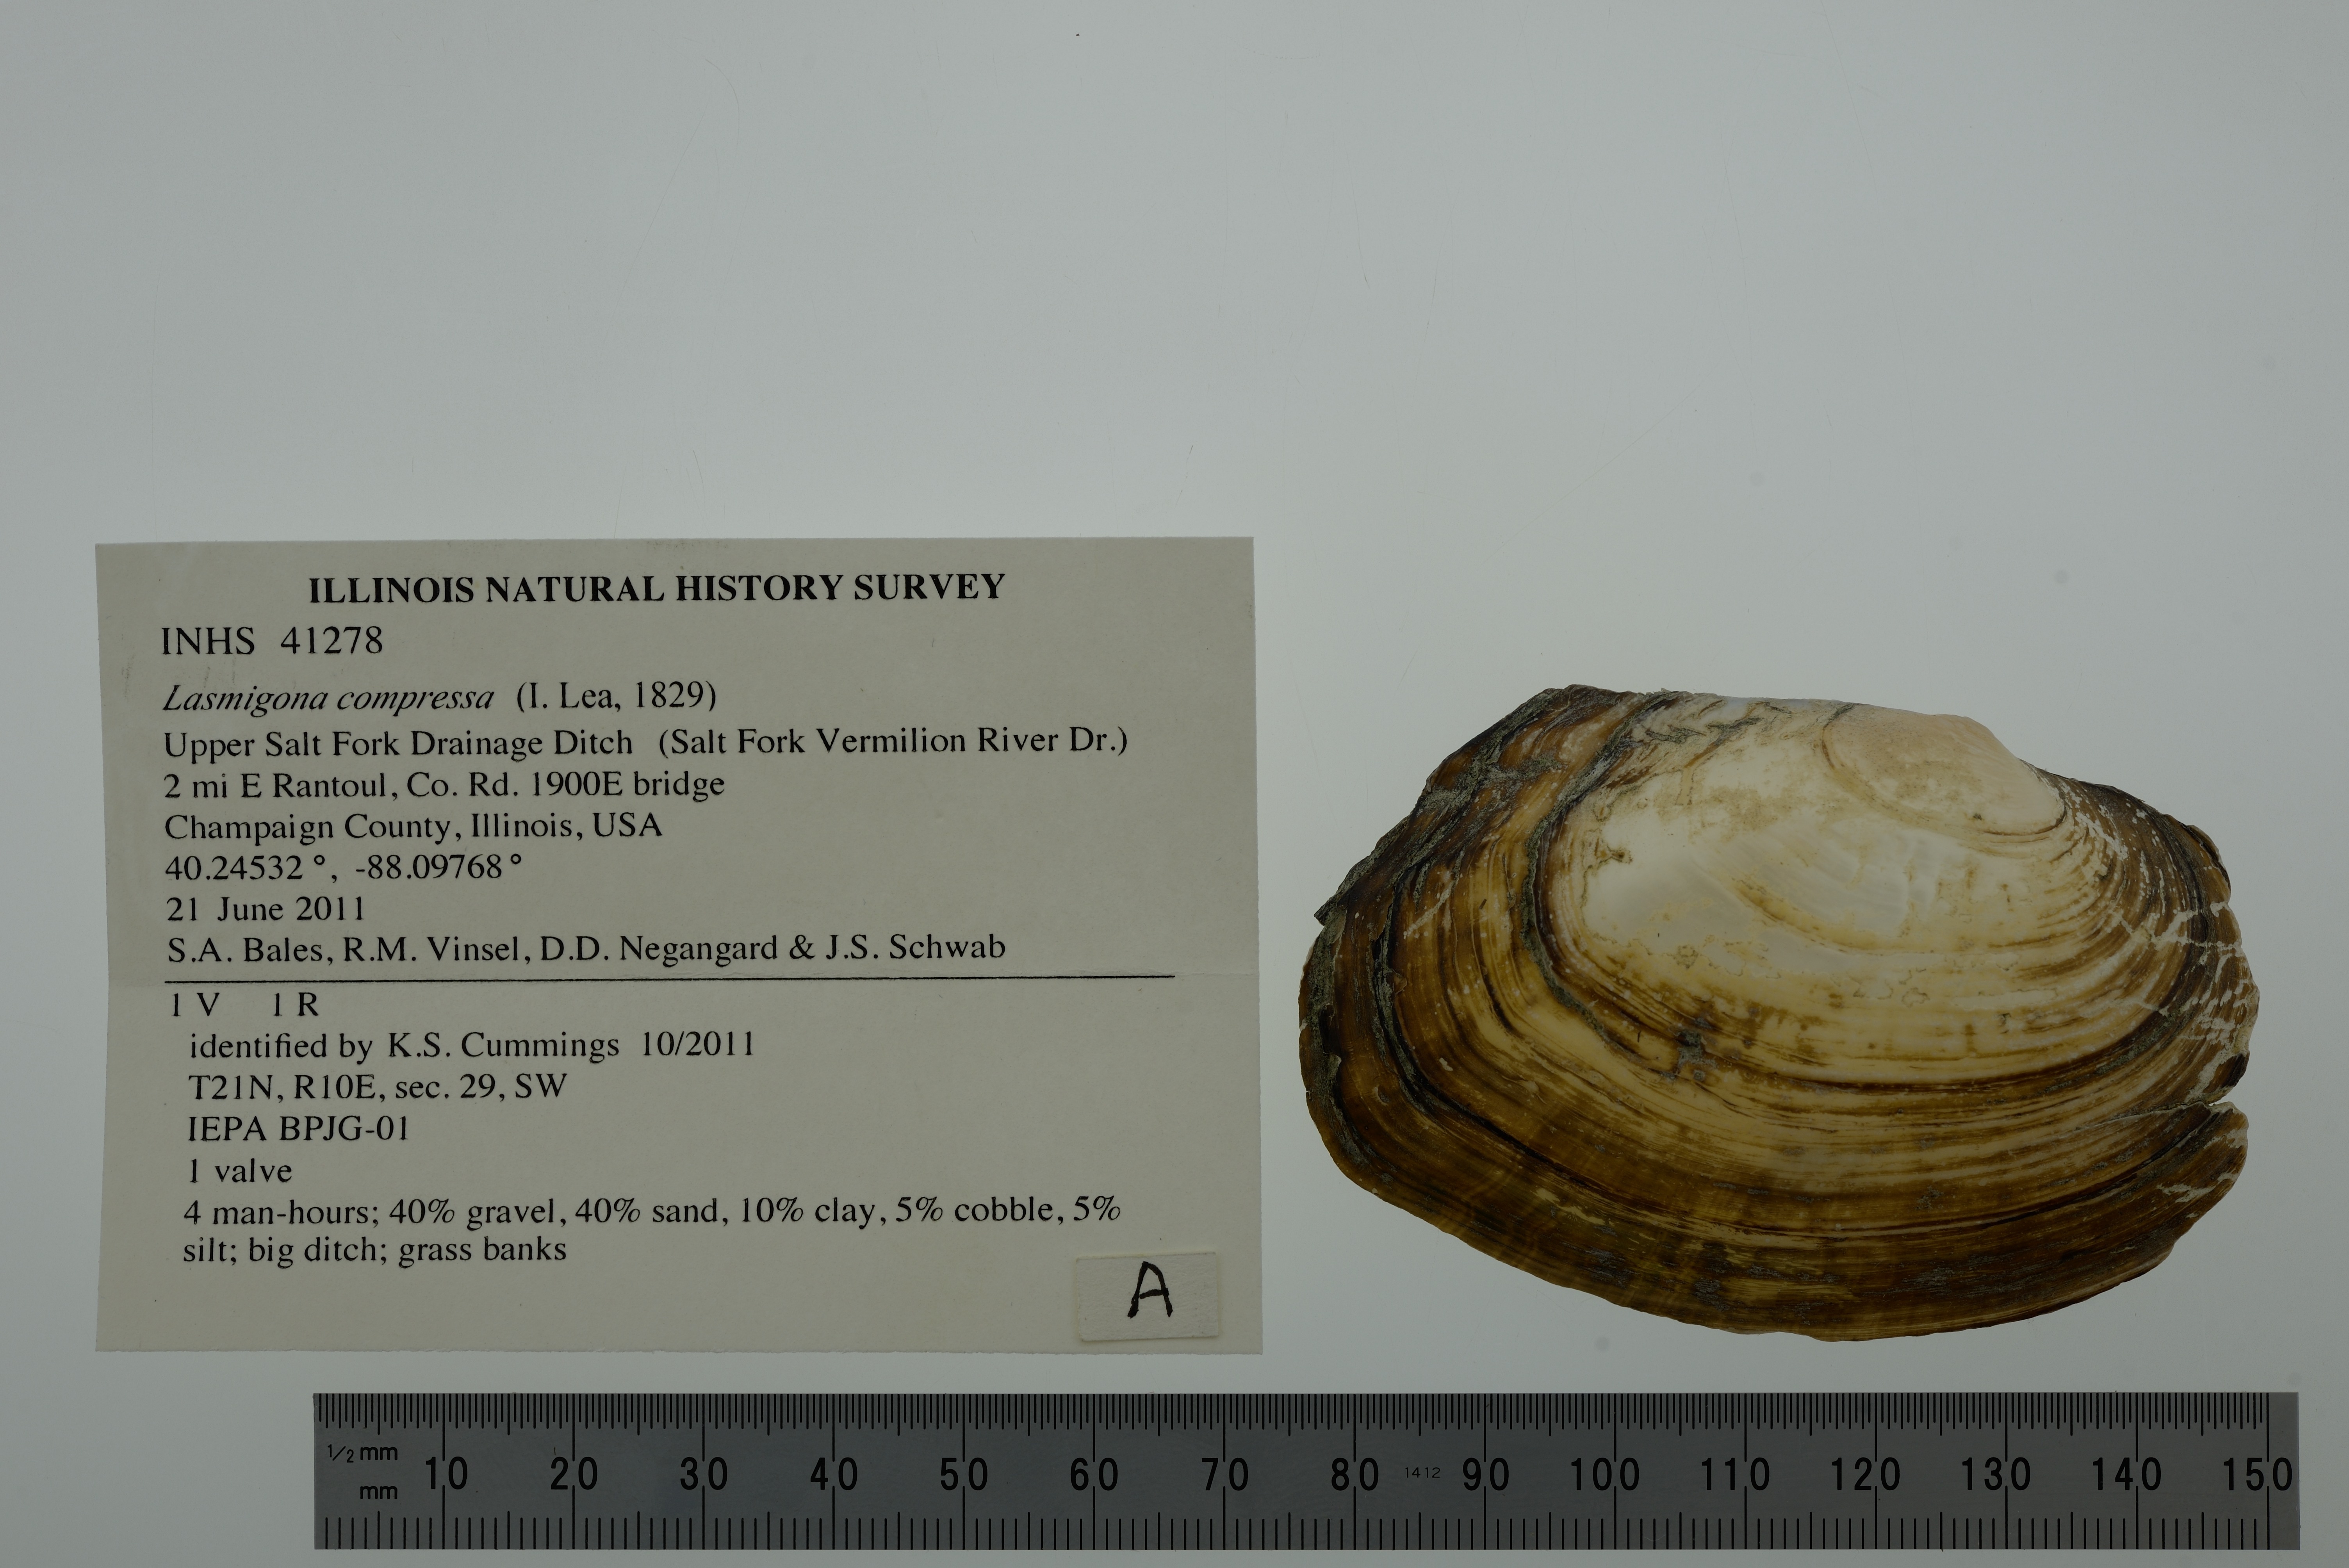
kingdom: Animalia
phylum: Mollusca
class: Bivalvia
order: Unionida
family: Unionidae
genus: Lasmigona
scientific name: Lasmigona compressa
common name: Creek heelsplitter
